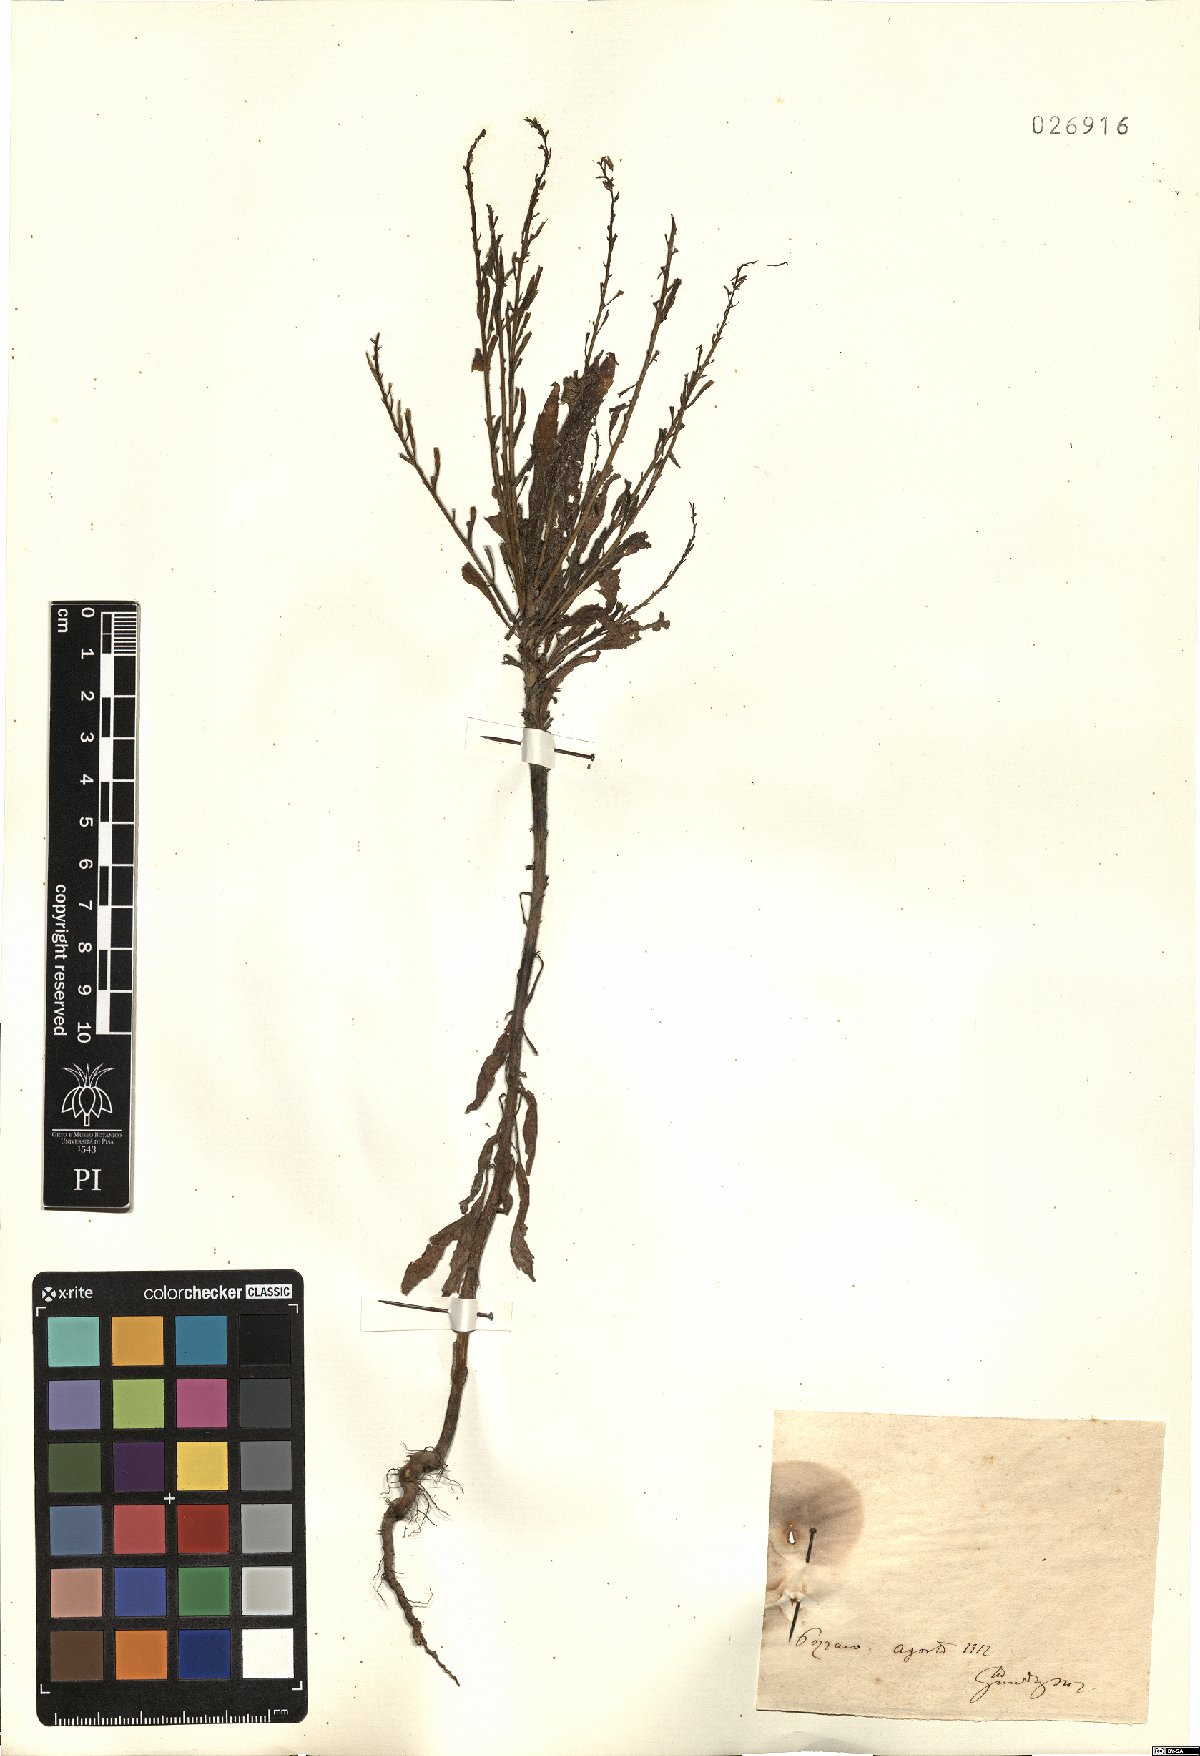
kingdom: Plantae
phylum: Tracheophyta
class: Magnoliopsida
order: Asterales
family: Asteraceae
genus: Erigeron
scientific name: Erigeron
